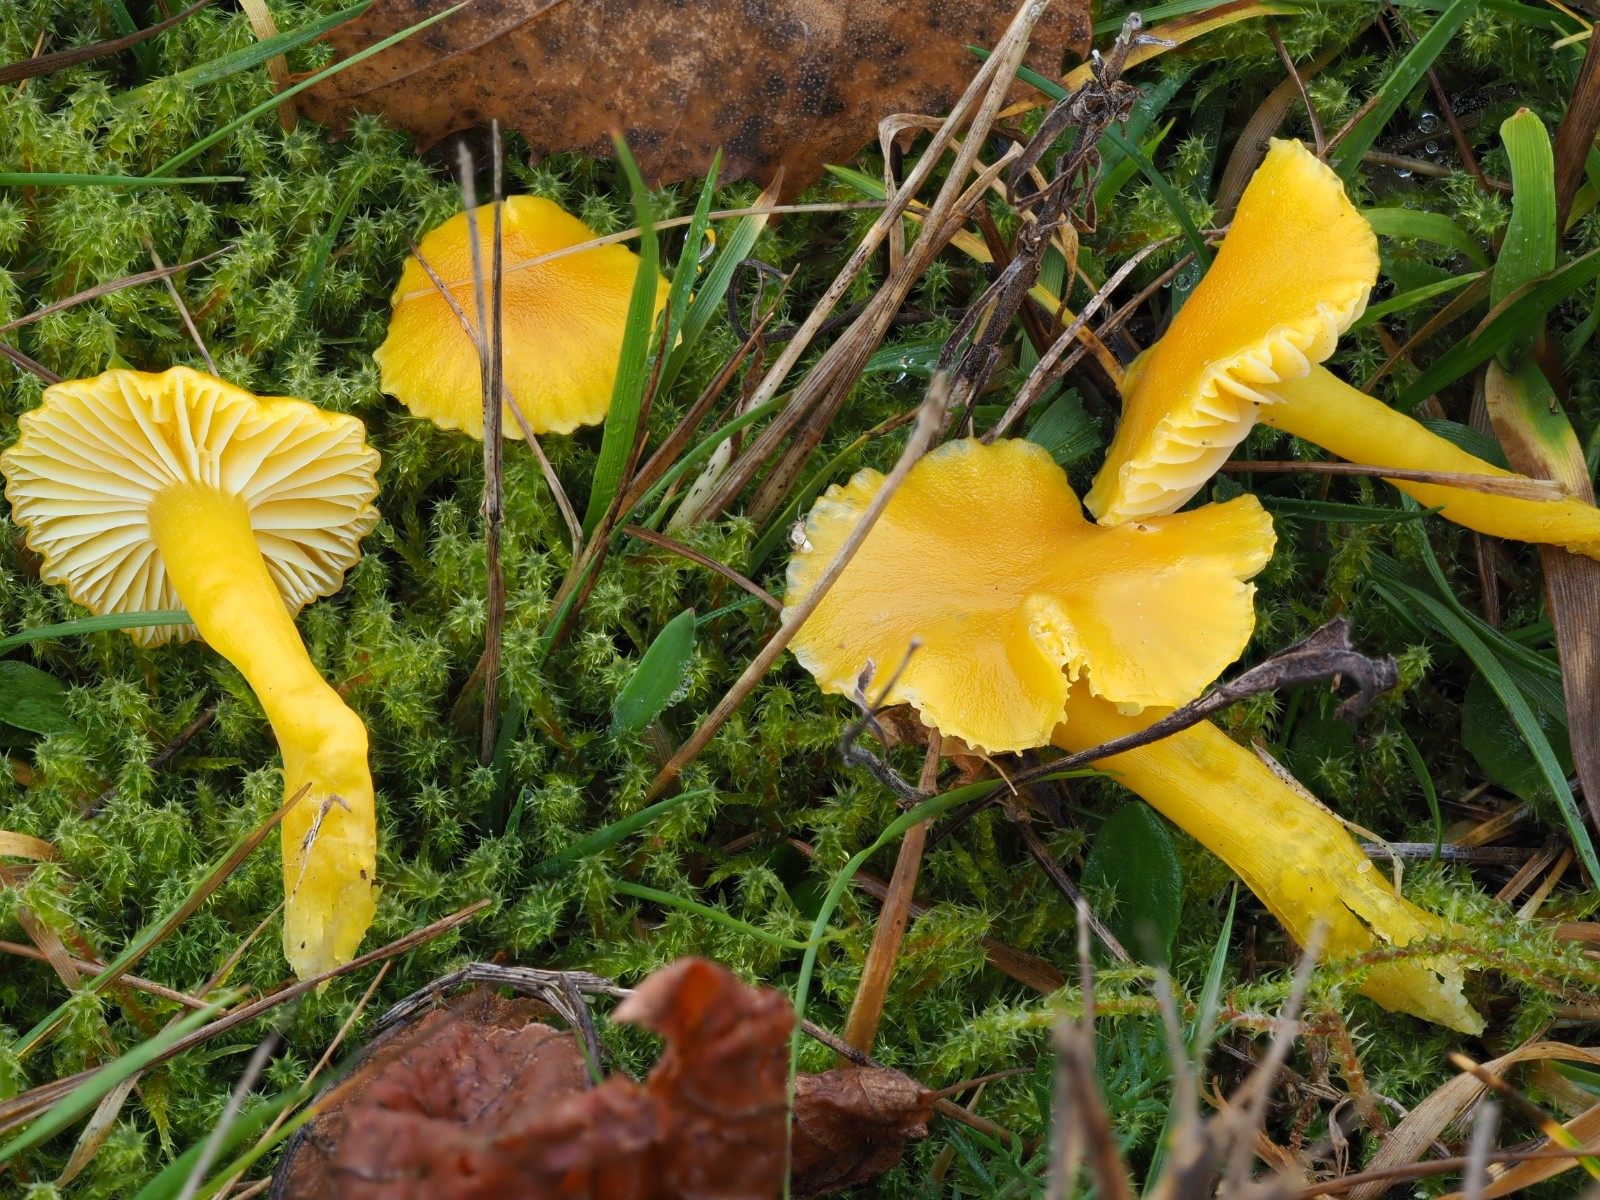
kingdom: Fungi
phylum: Basidiomycota
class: Agaricomycetes
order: Agaricales
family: Hygrophoraceae
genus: Hygrocybe
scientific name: Hygrocybe ceracea
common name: voksgul vokshat
